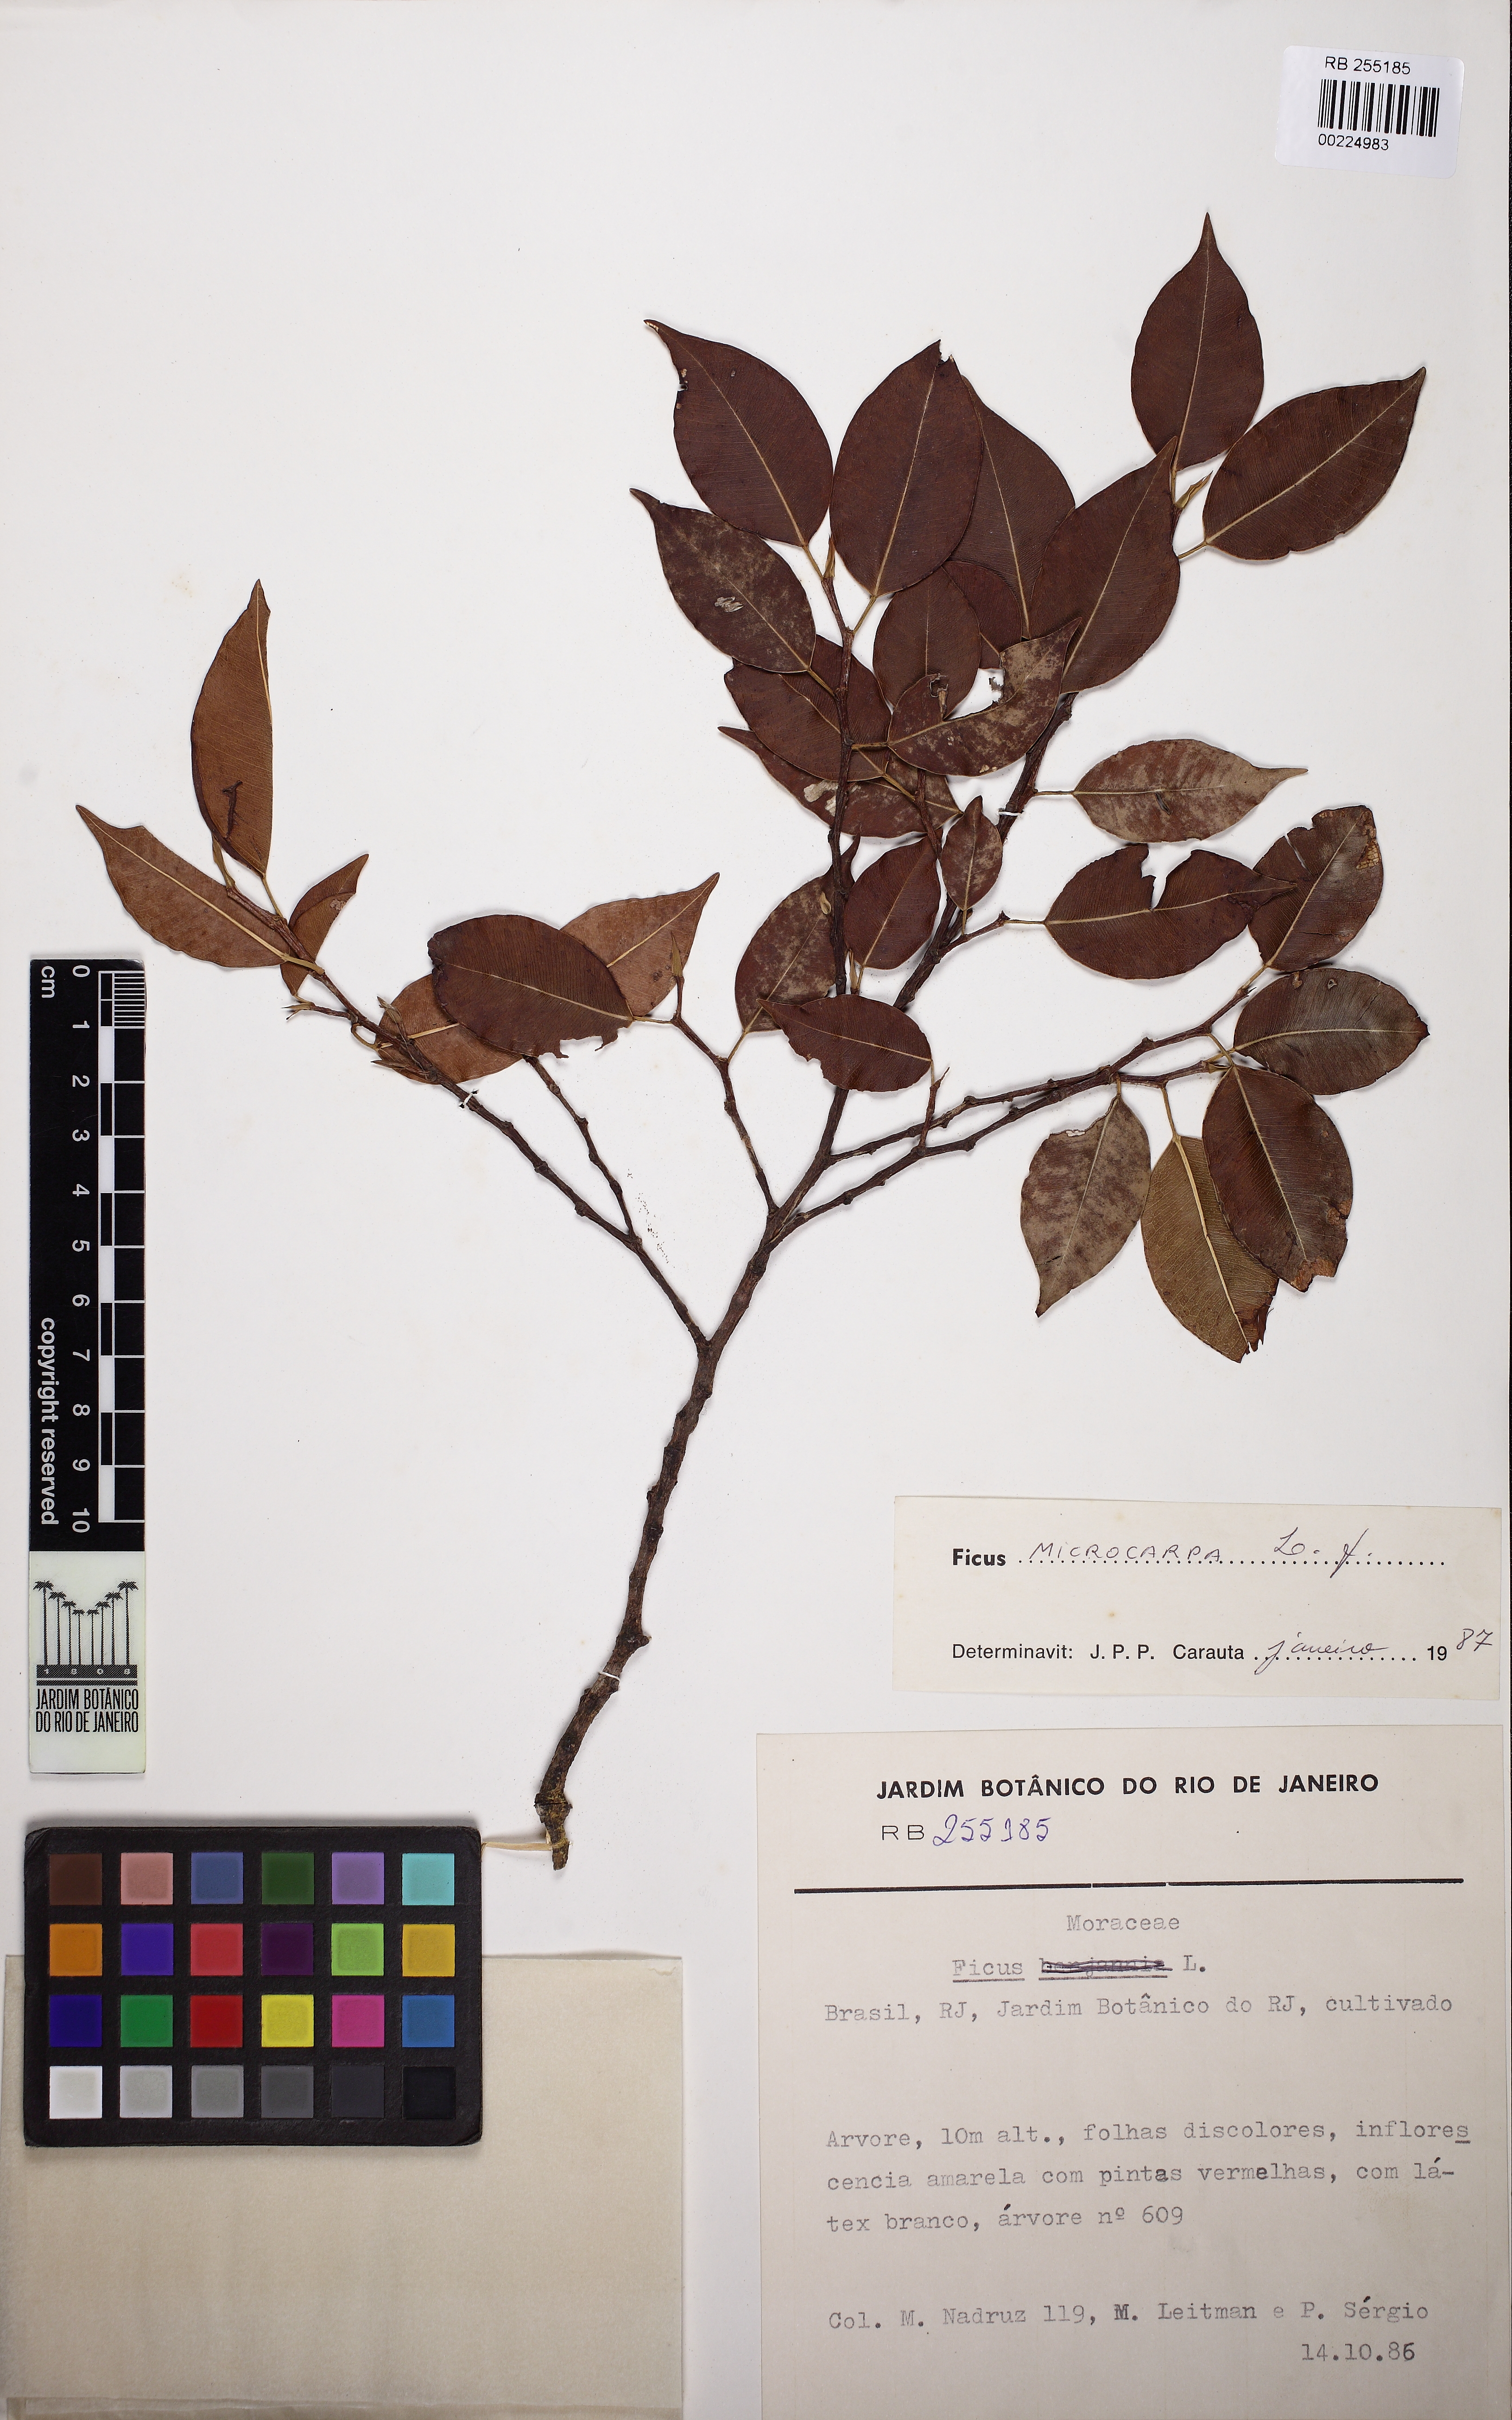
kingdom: Plantae
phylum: Tracheophyta
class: Magnoliopsida
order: Rosales
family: Moraceae
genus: Ficus
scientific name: Ficus microcarpa
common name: Chinese banyan
